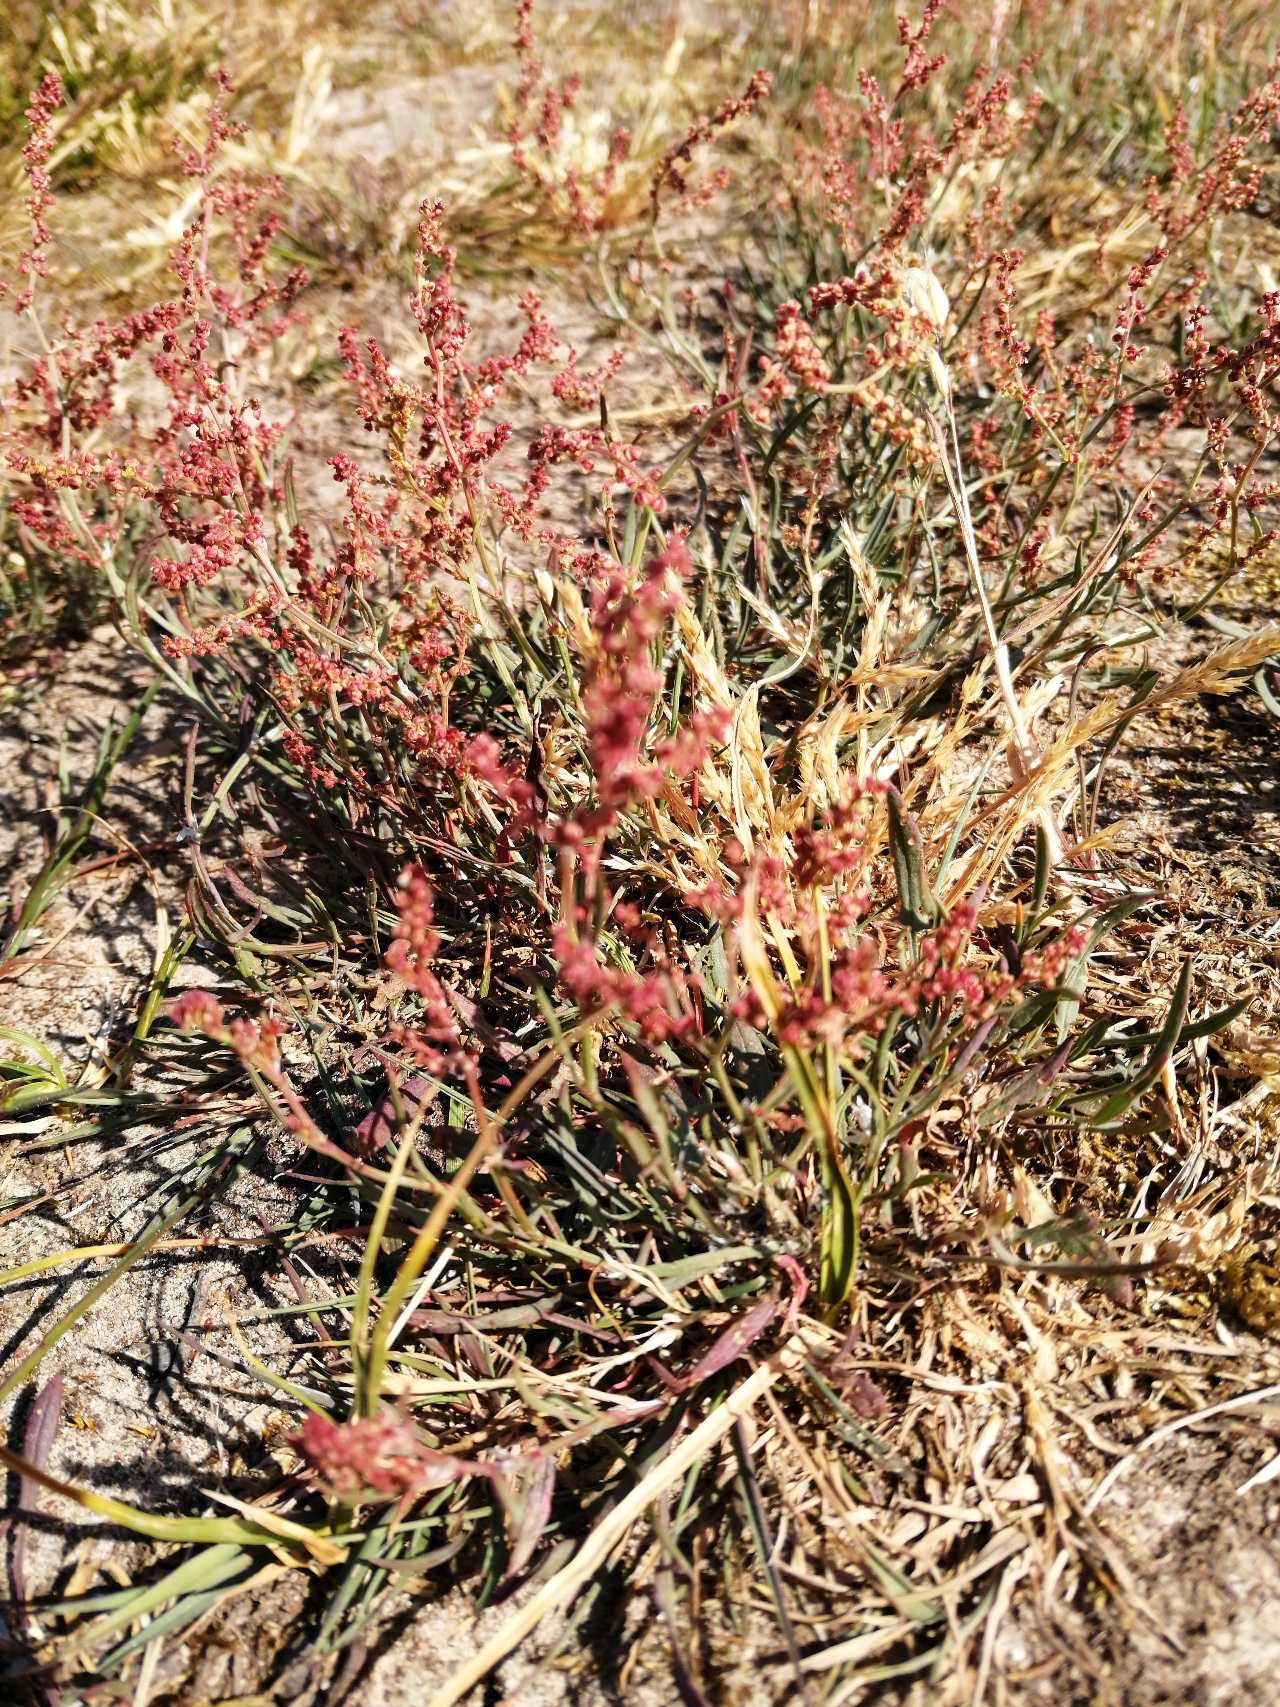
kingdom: Plantae
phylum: Tracheophyta
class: Magnoliopsida
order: Caryophyllales
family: Polygonaceae
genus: Rumex
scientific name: Rumex acetosella
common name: Rødknæ
